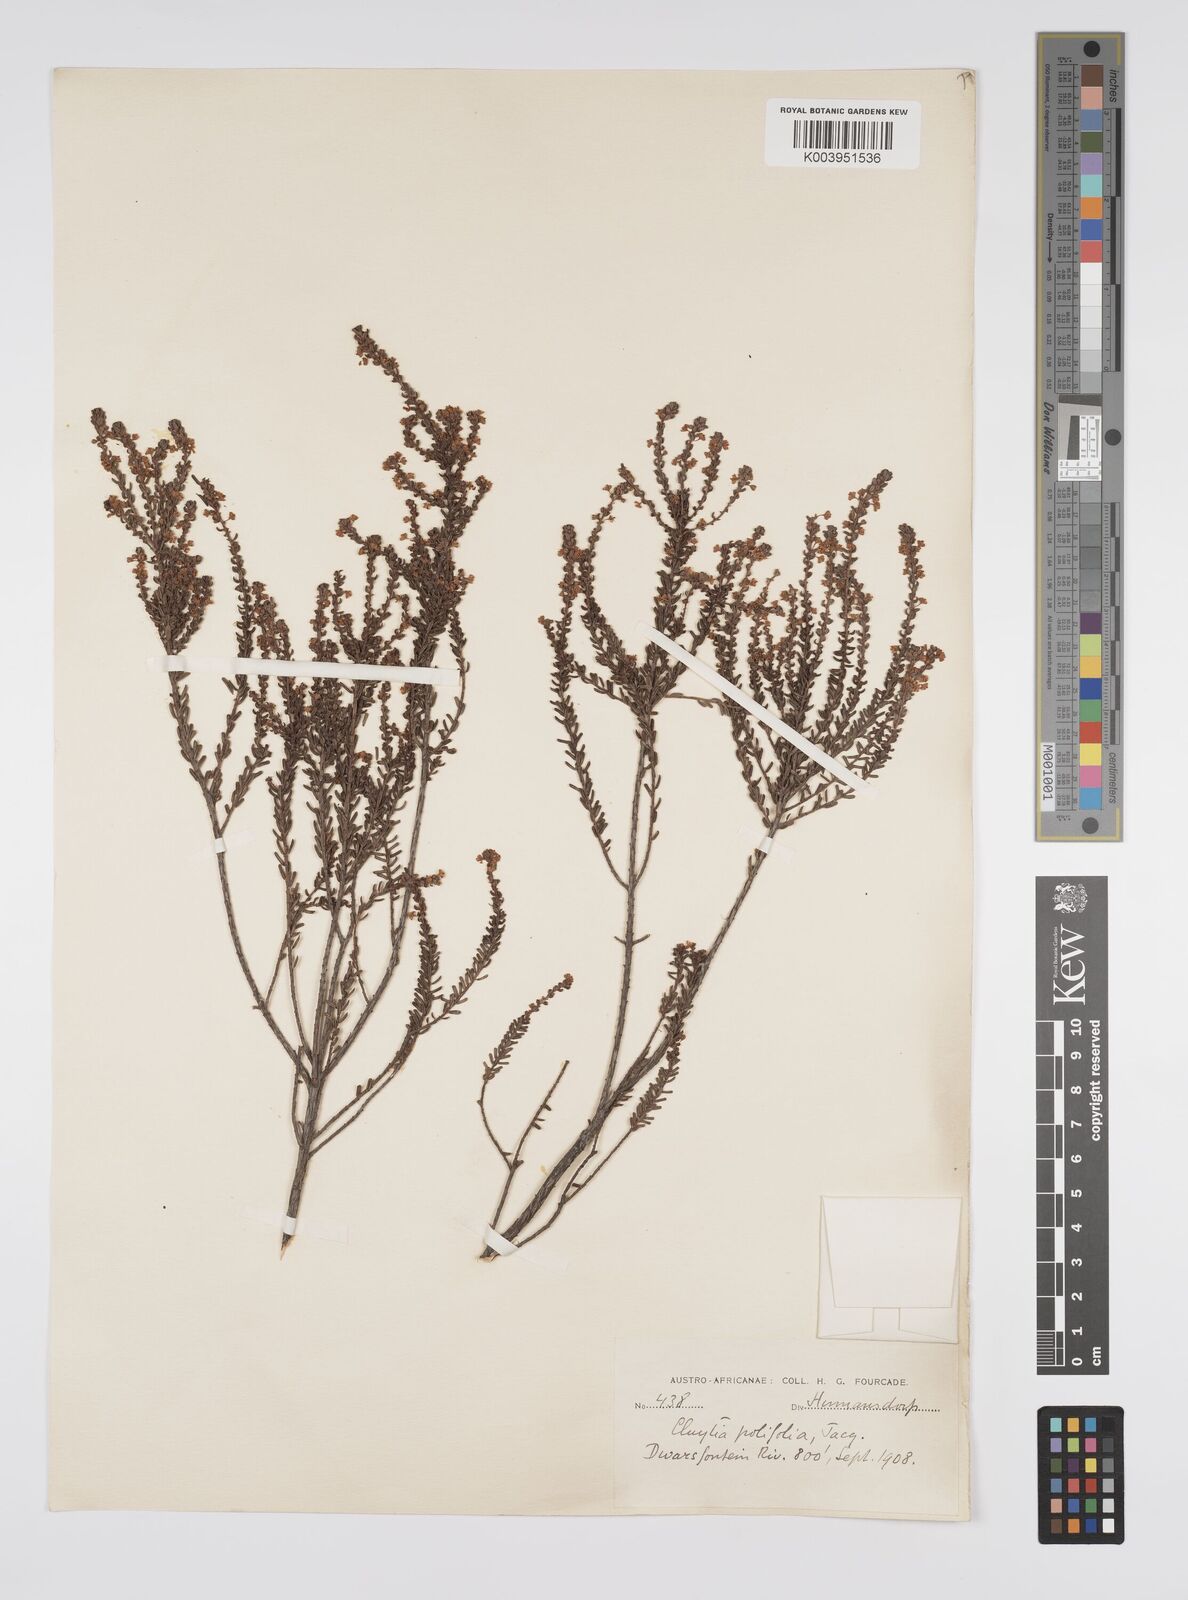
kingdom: Plantae
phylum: Tracheophyta
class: Magnoliopsida
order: Malpighiales
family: Peraceae
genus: Clutia
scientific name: Clutia
